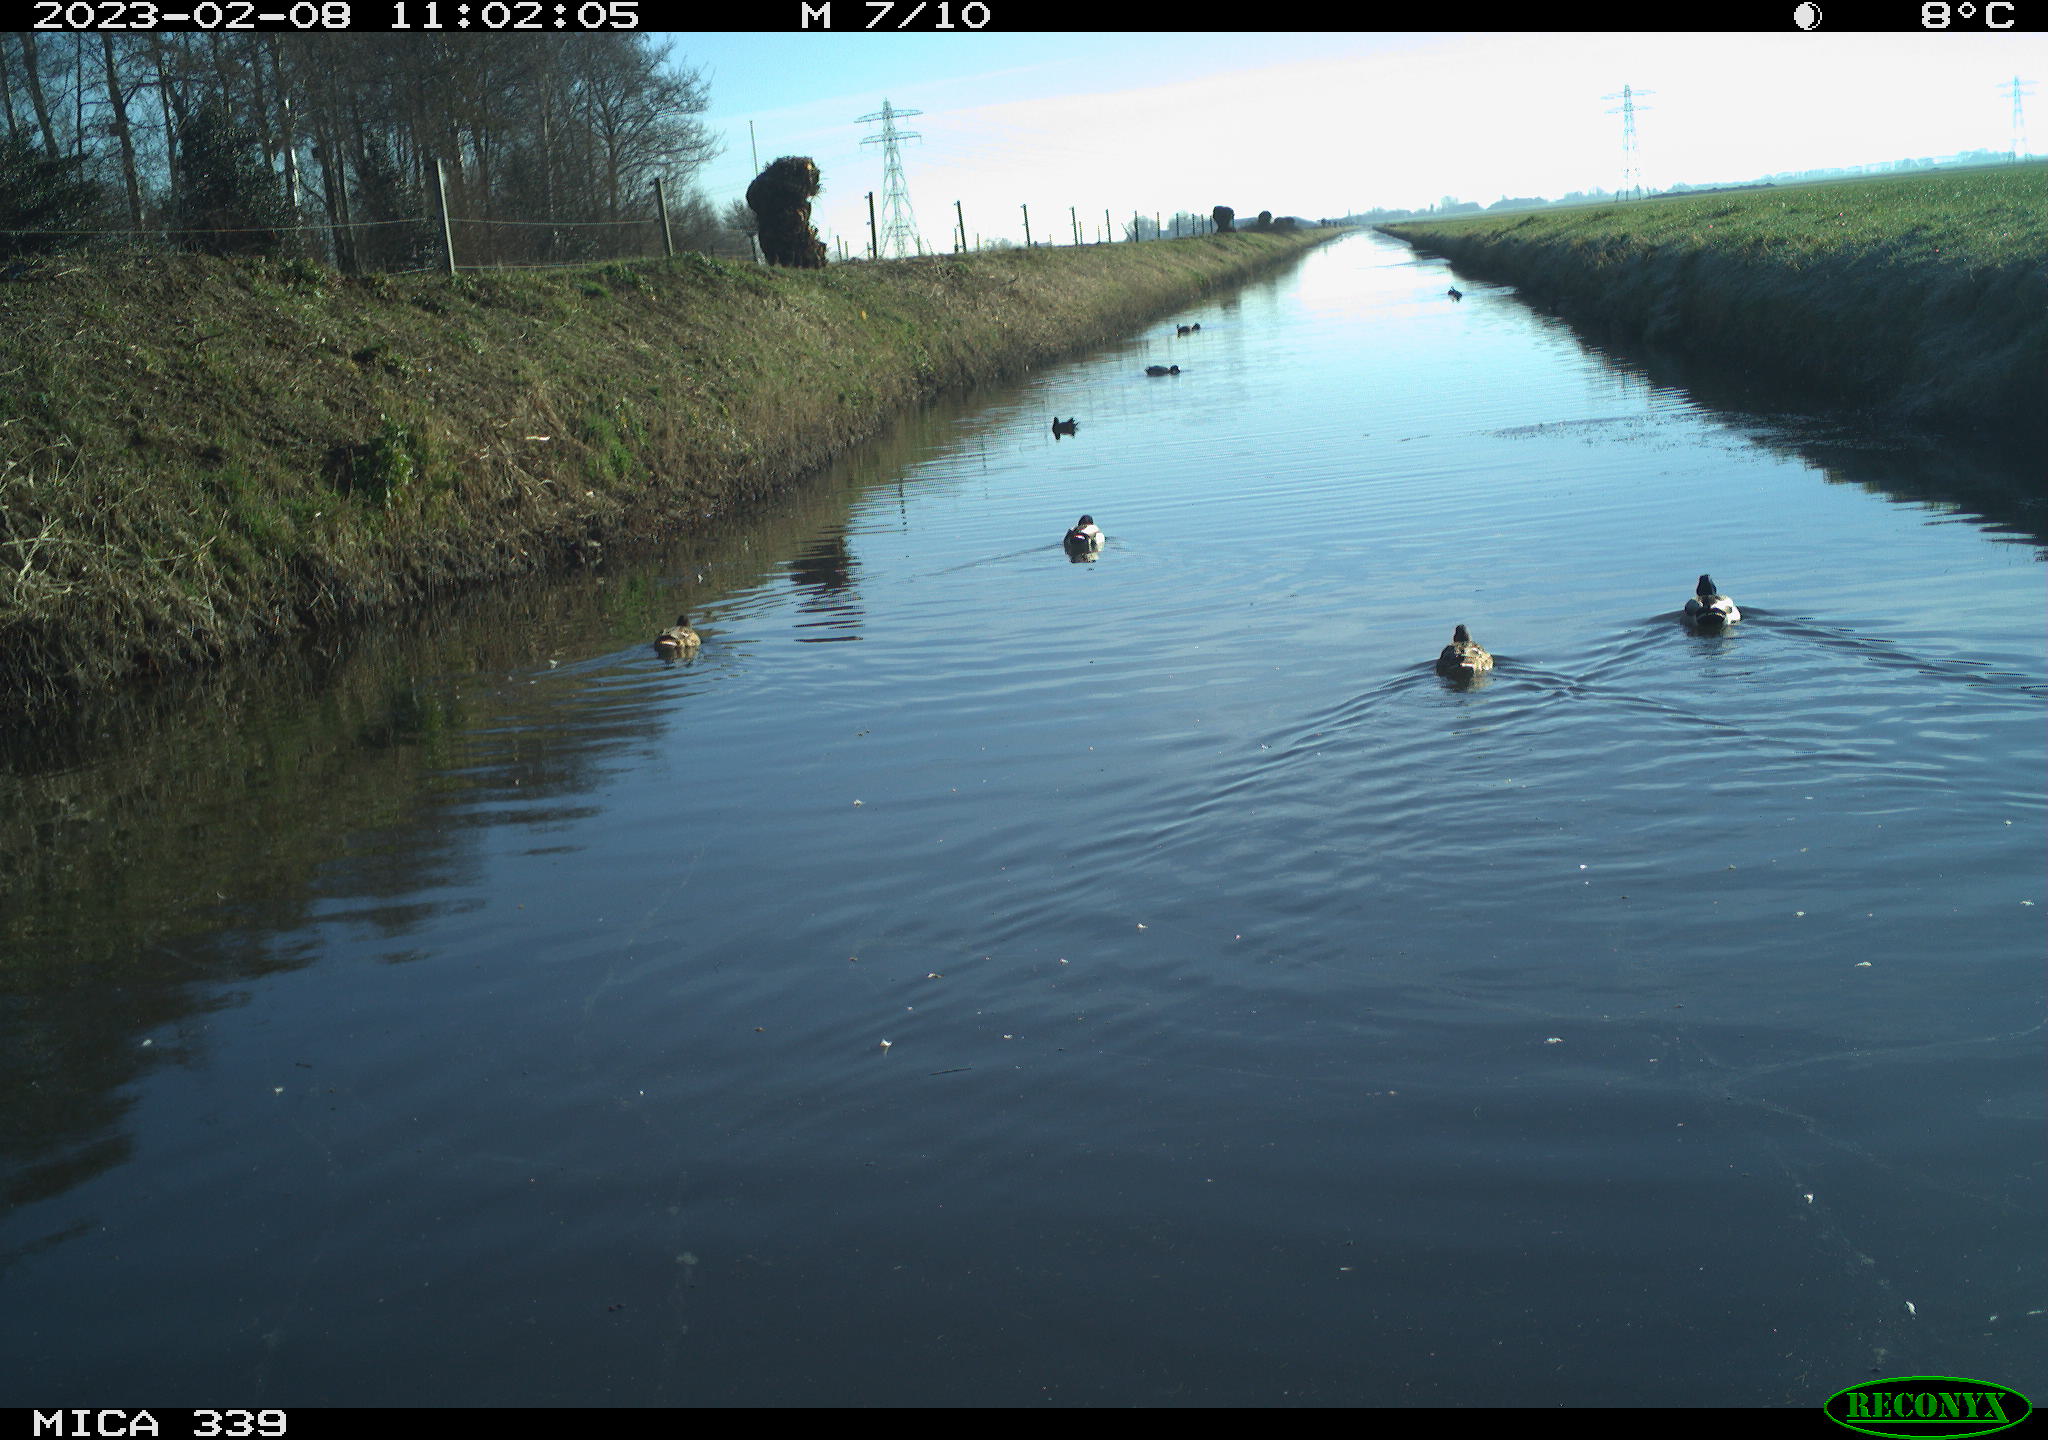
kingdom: Animalia
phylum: Chordata
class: Aves
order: Anseriformes
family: Anatidae
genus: Anas
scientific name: Anas
